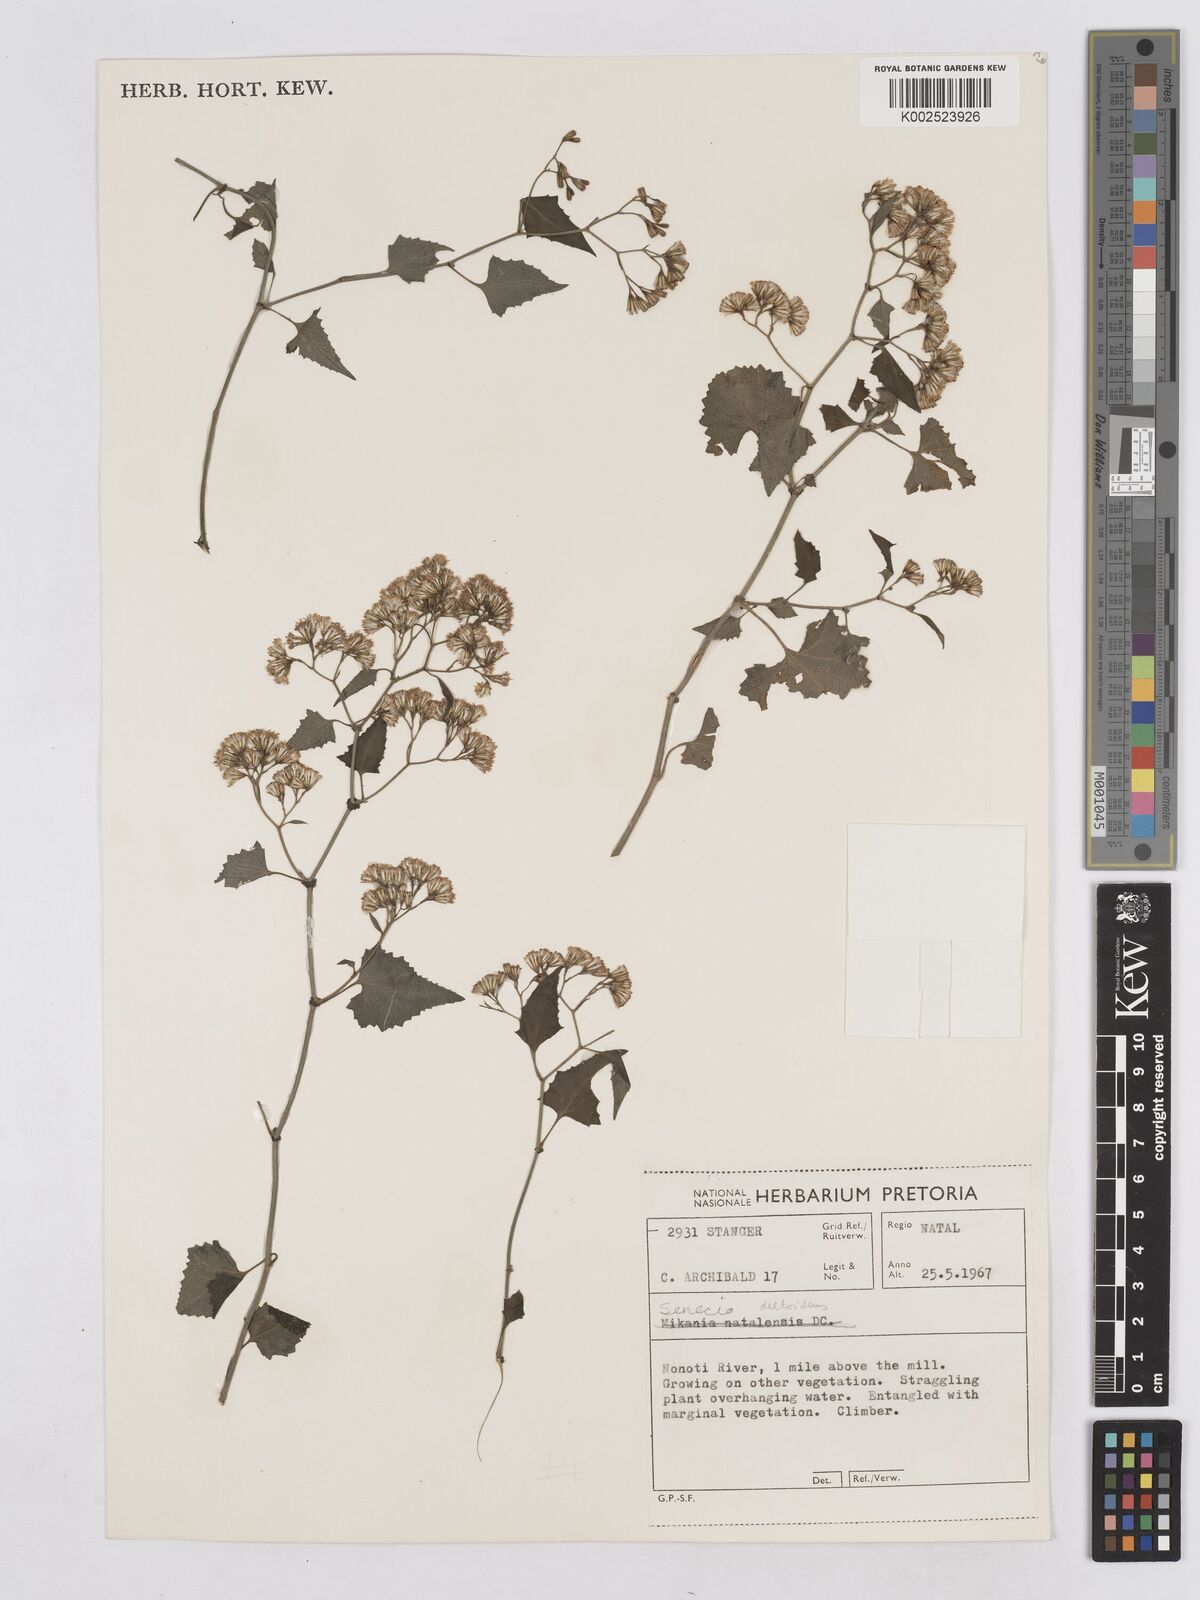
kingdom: Plantae
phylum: Tracheophyta
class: Magnoliopsida
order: Asterales
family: Asteraceae
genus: Senecio
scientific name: Senecio deltoideus
